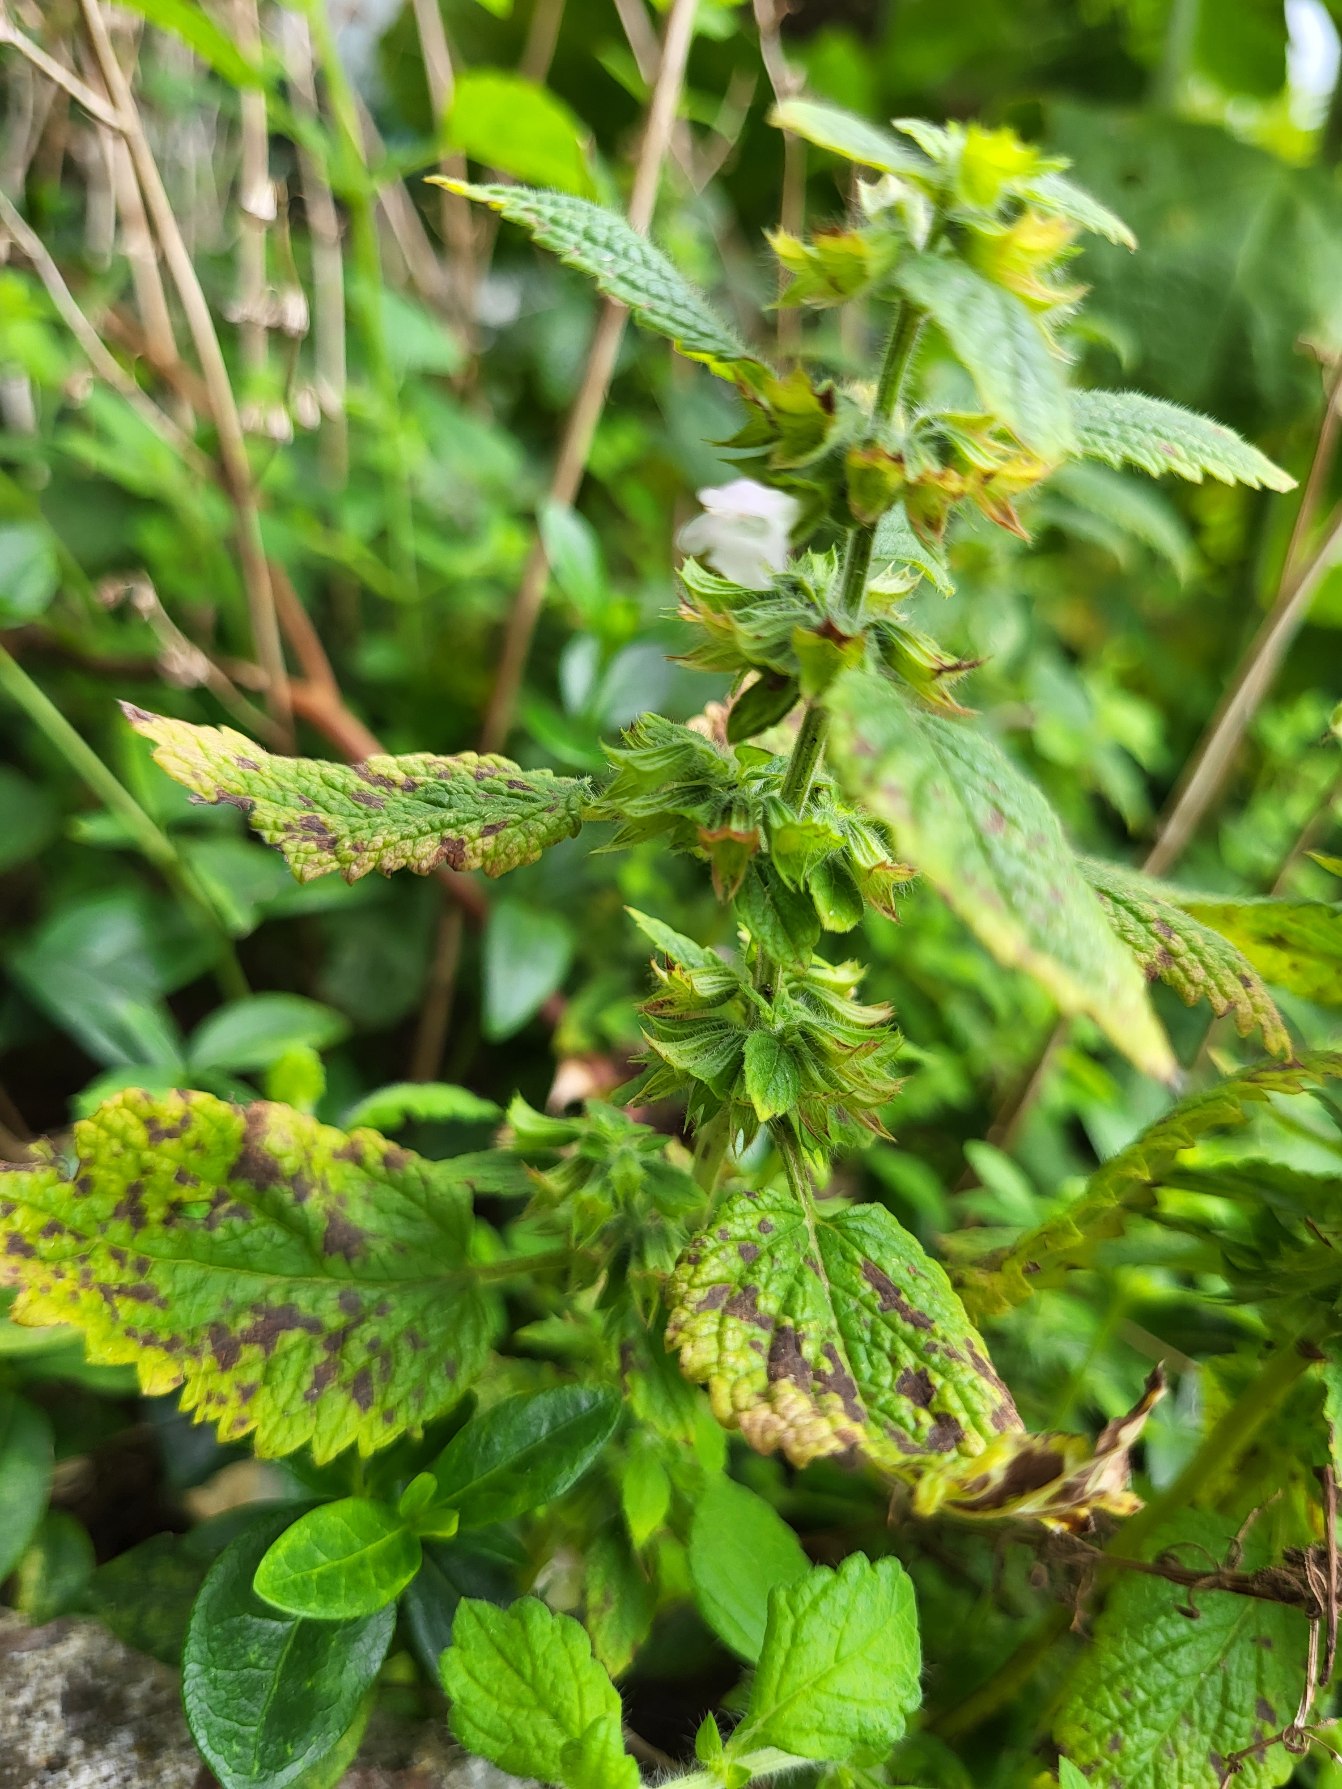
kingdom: Plantae
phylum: Tracheophyta
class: Magnoliopsida
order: Lamiales
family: Lamiaceae
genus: Melissa
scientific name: Melissa officinalis
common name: Citronmelisse
